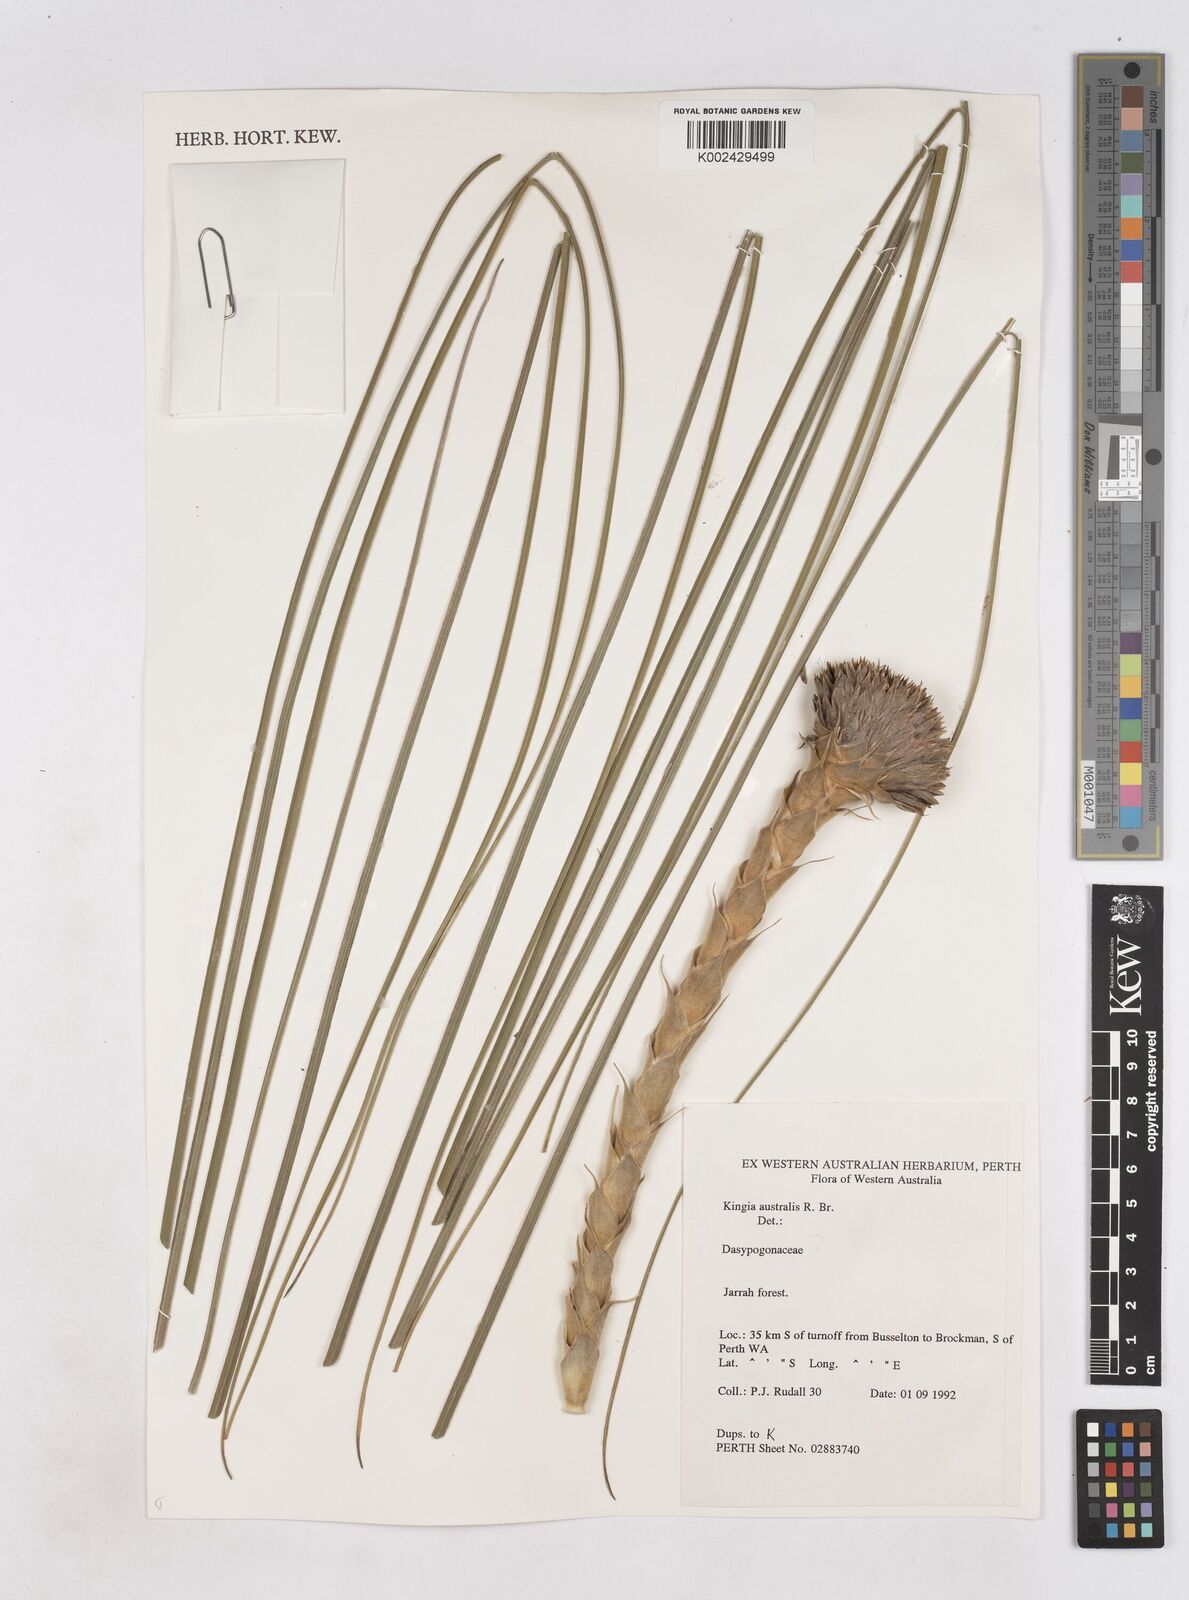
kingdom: Plantae
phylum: Tracheophyta
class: Liliopsida
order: Arecales
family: Dasypogonaceae
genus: Kingia
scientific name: Kingia australis
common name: Black gin
